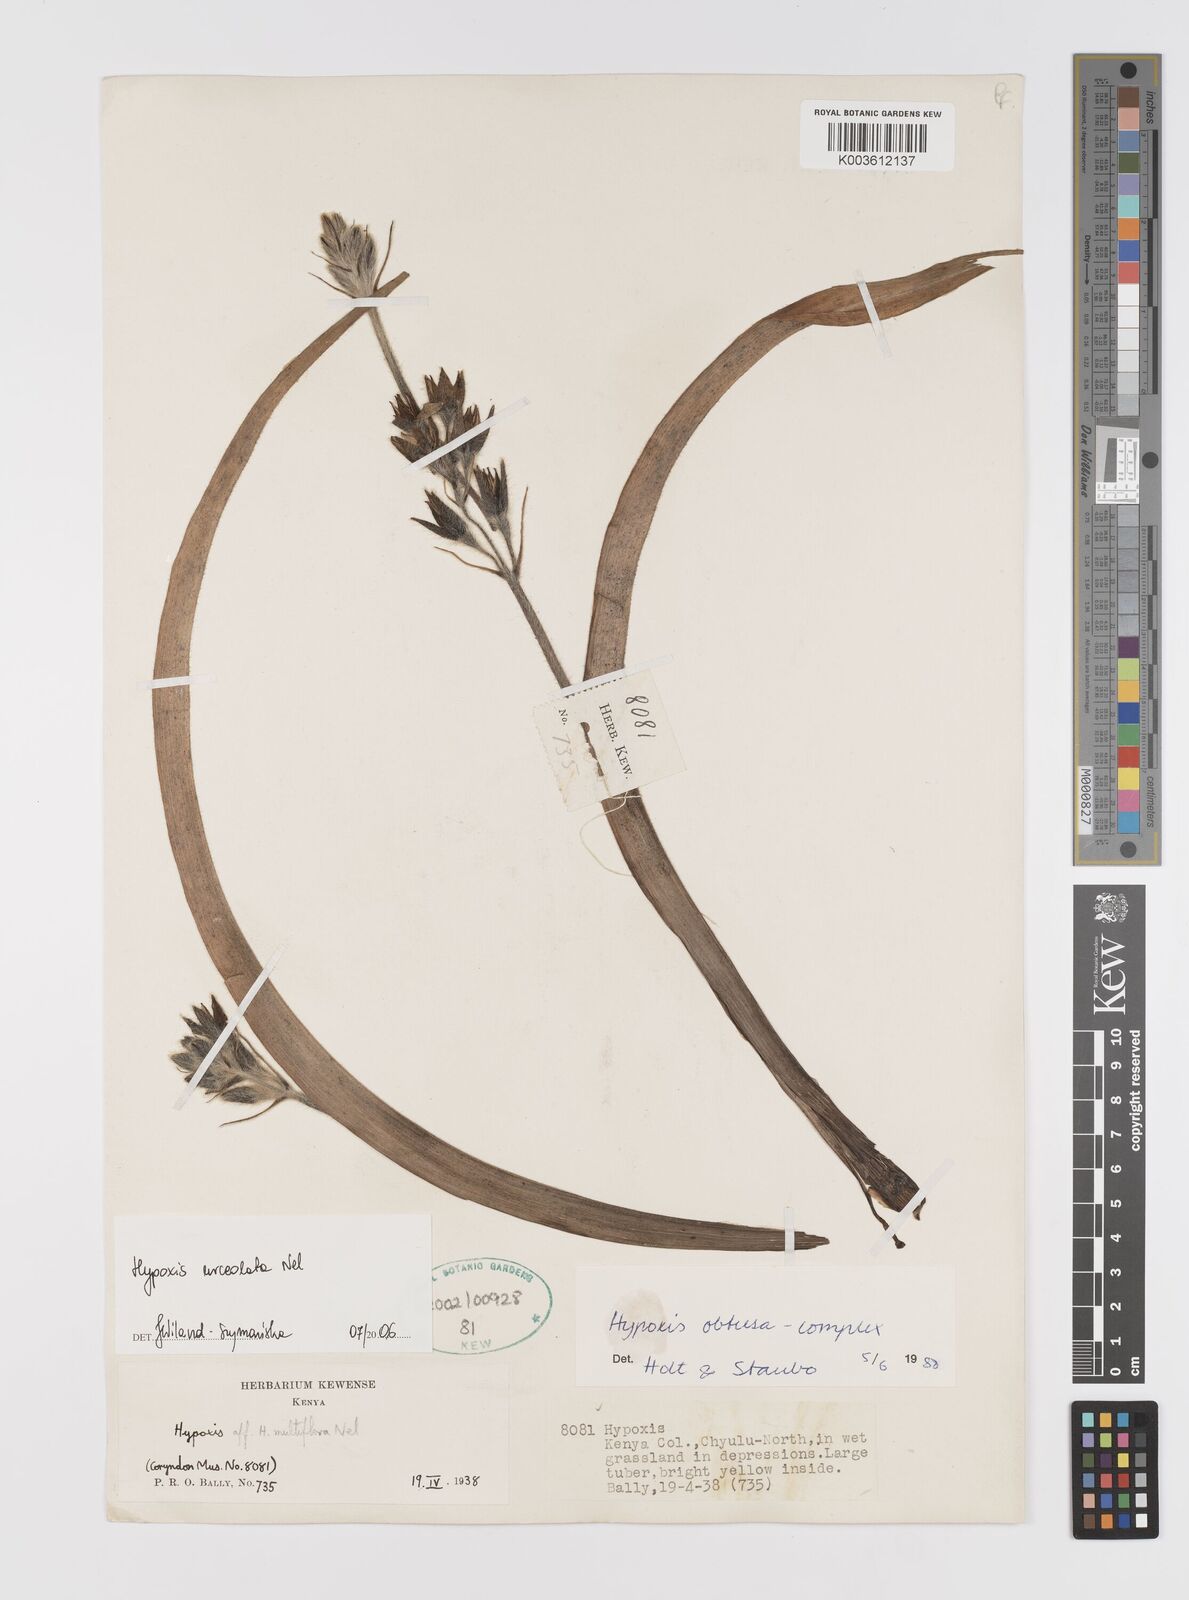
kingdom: Plantae
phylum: Tracheophyta
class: Liliopsida
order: Asparagales
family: Hypoxidaceae
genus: Hypoxis
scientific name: Hypoxis urceolata
